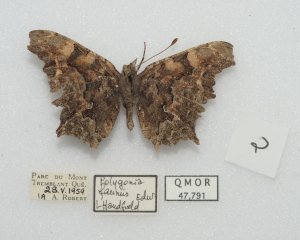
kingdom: Animalia
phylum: Arthropoda
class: Insecta
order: Lepidoptera
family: Nymphalidae
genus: Polygonia
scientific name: Polygonia faunus
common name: Green Comma
